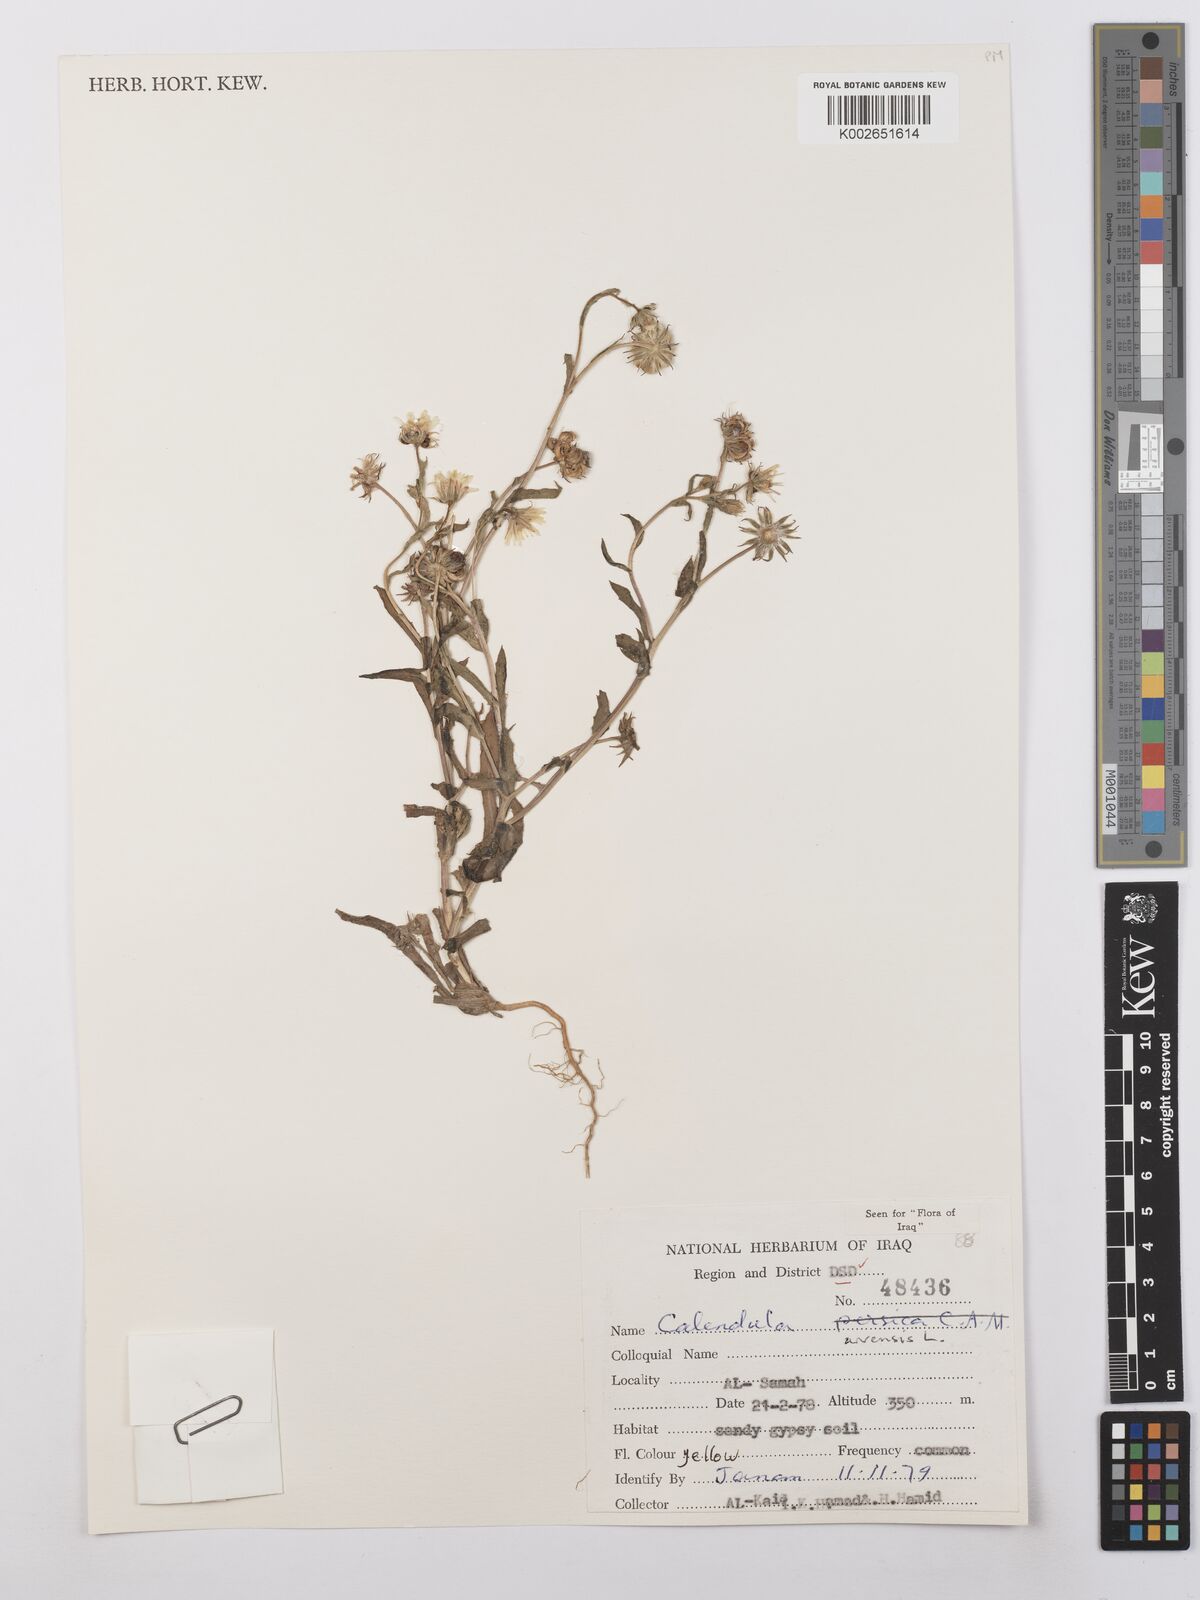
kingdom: Plantae
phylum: Tracheophyta
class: Magnoliopsida
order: Asterales
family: Asteraceae
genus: Calendula
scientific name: Calendula arvensis
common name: Field marigold
